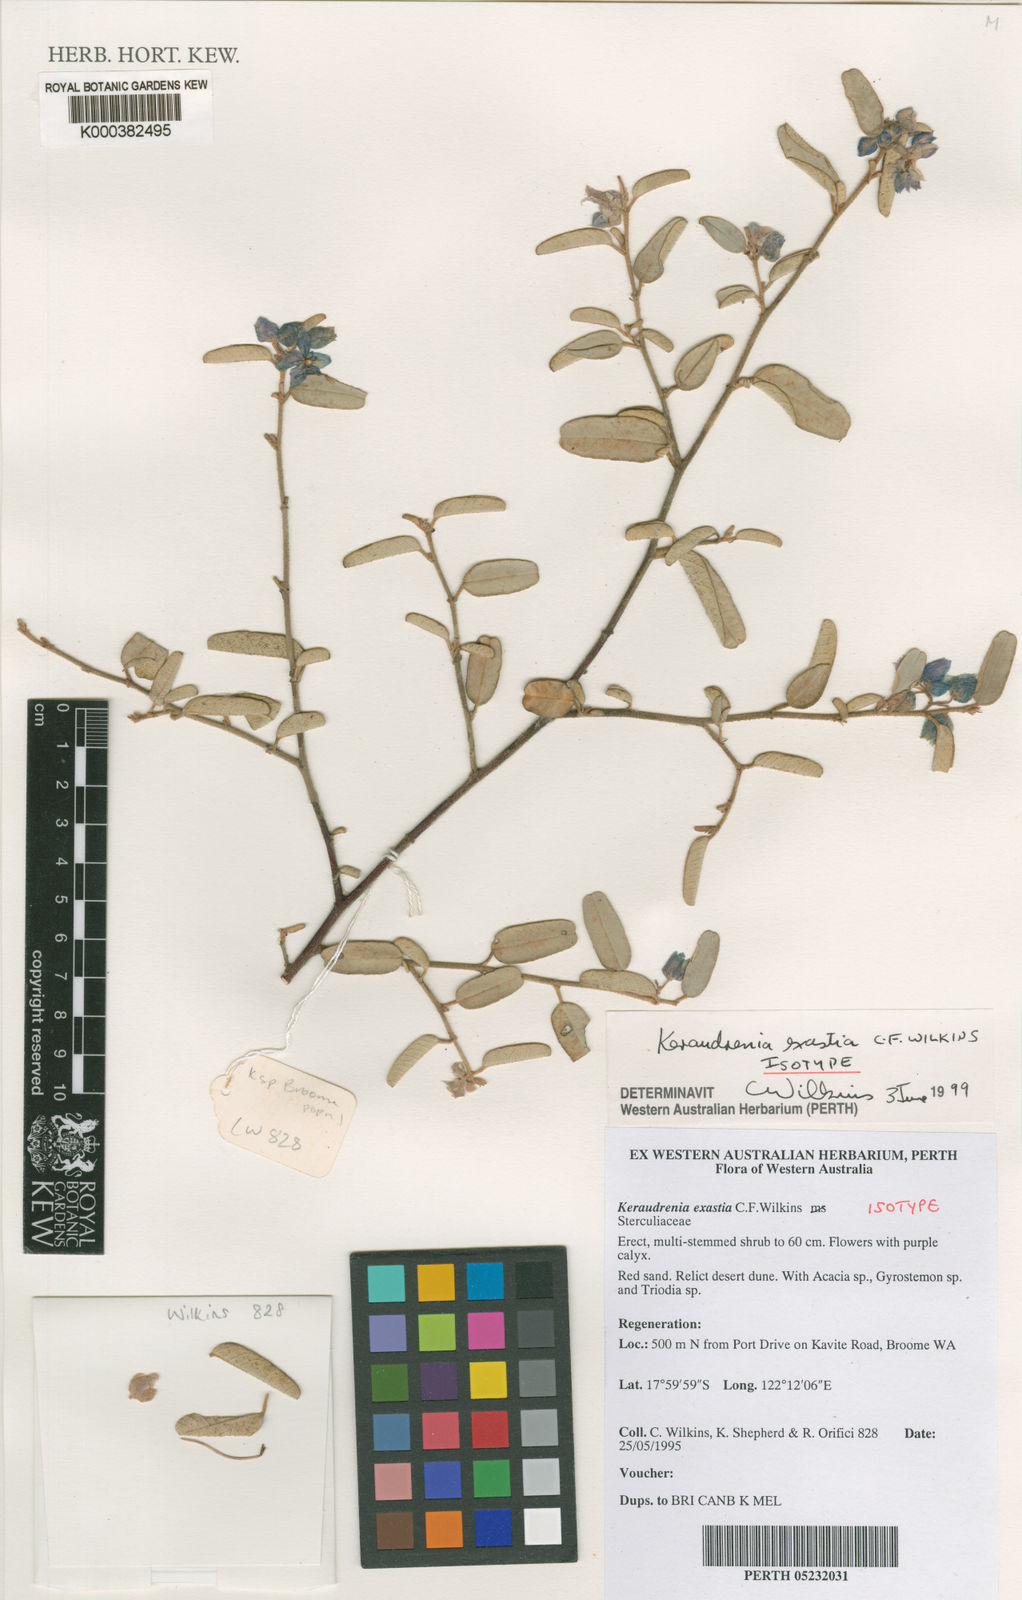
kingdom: Plantae
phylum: Tracheophyta
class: Magnoliopsida
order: Malvales
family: Malvaceae
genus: Seringia
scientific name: Seringia exastia
